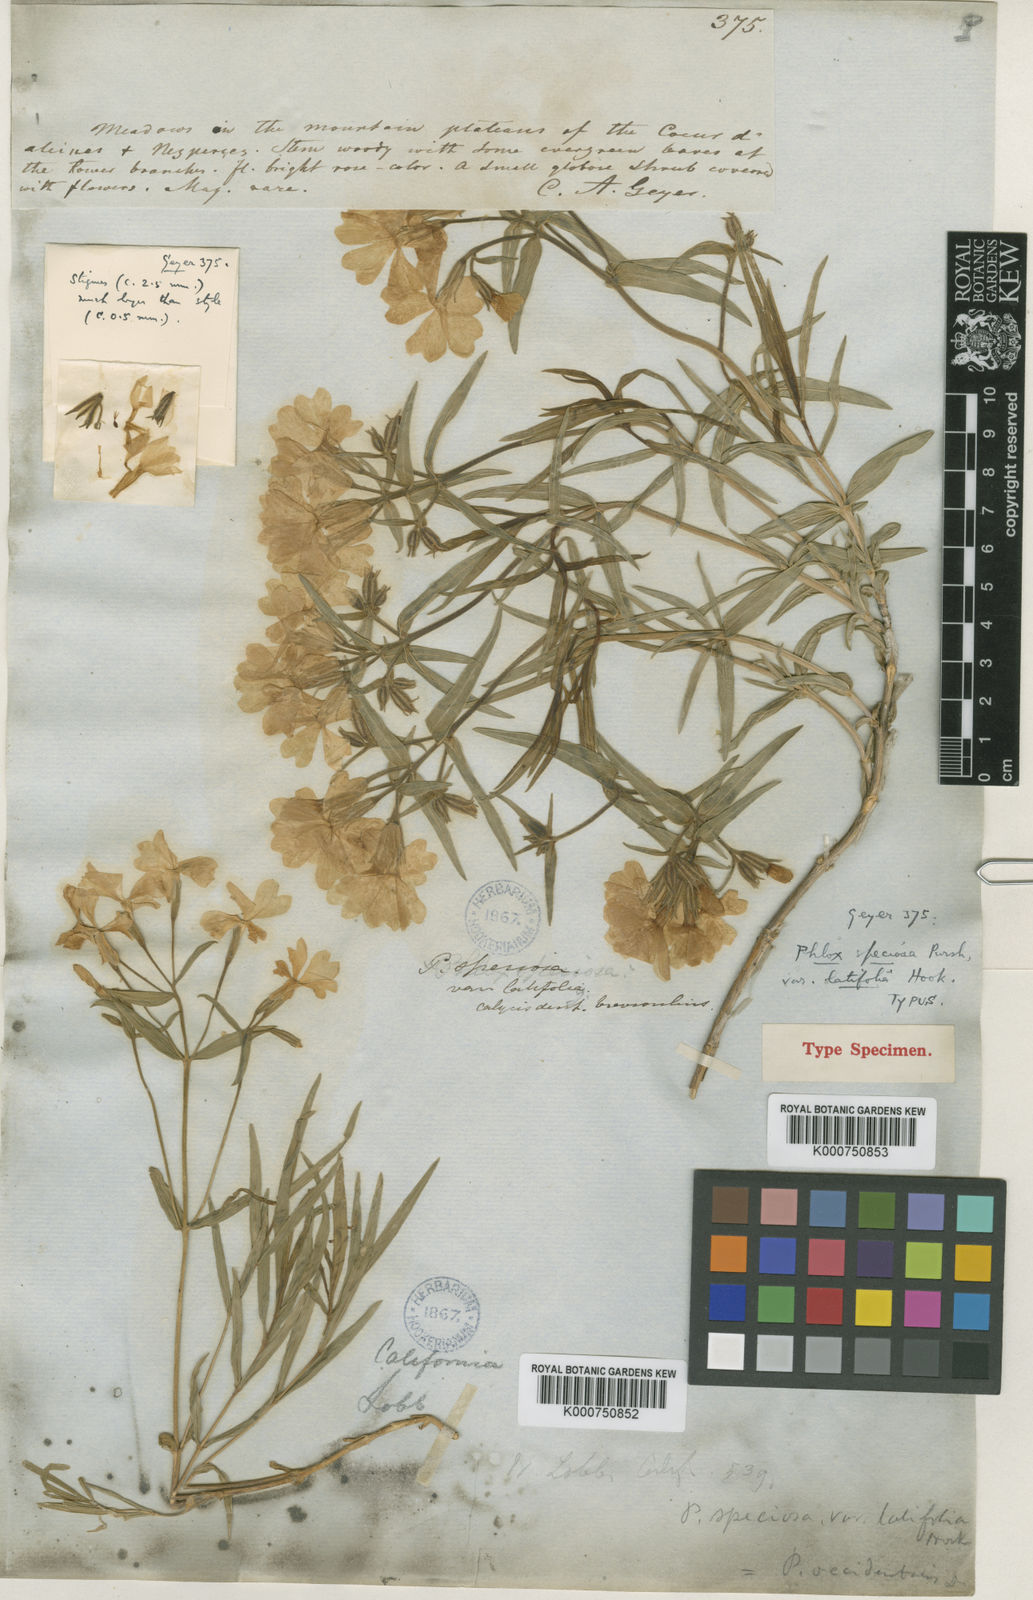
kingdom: Plantae
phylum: Tracheophyta
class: Magnoliopsida
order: Ericales
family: Polemoniaceae
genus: Phlox
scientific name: Phlox speciosa
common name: Bush phlox
